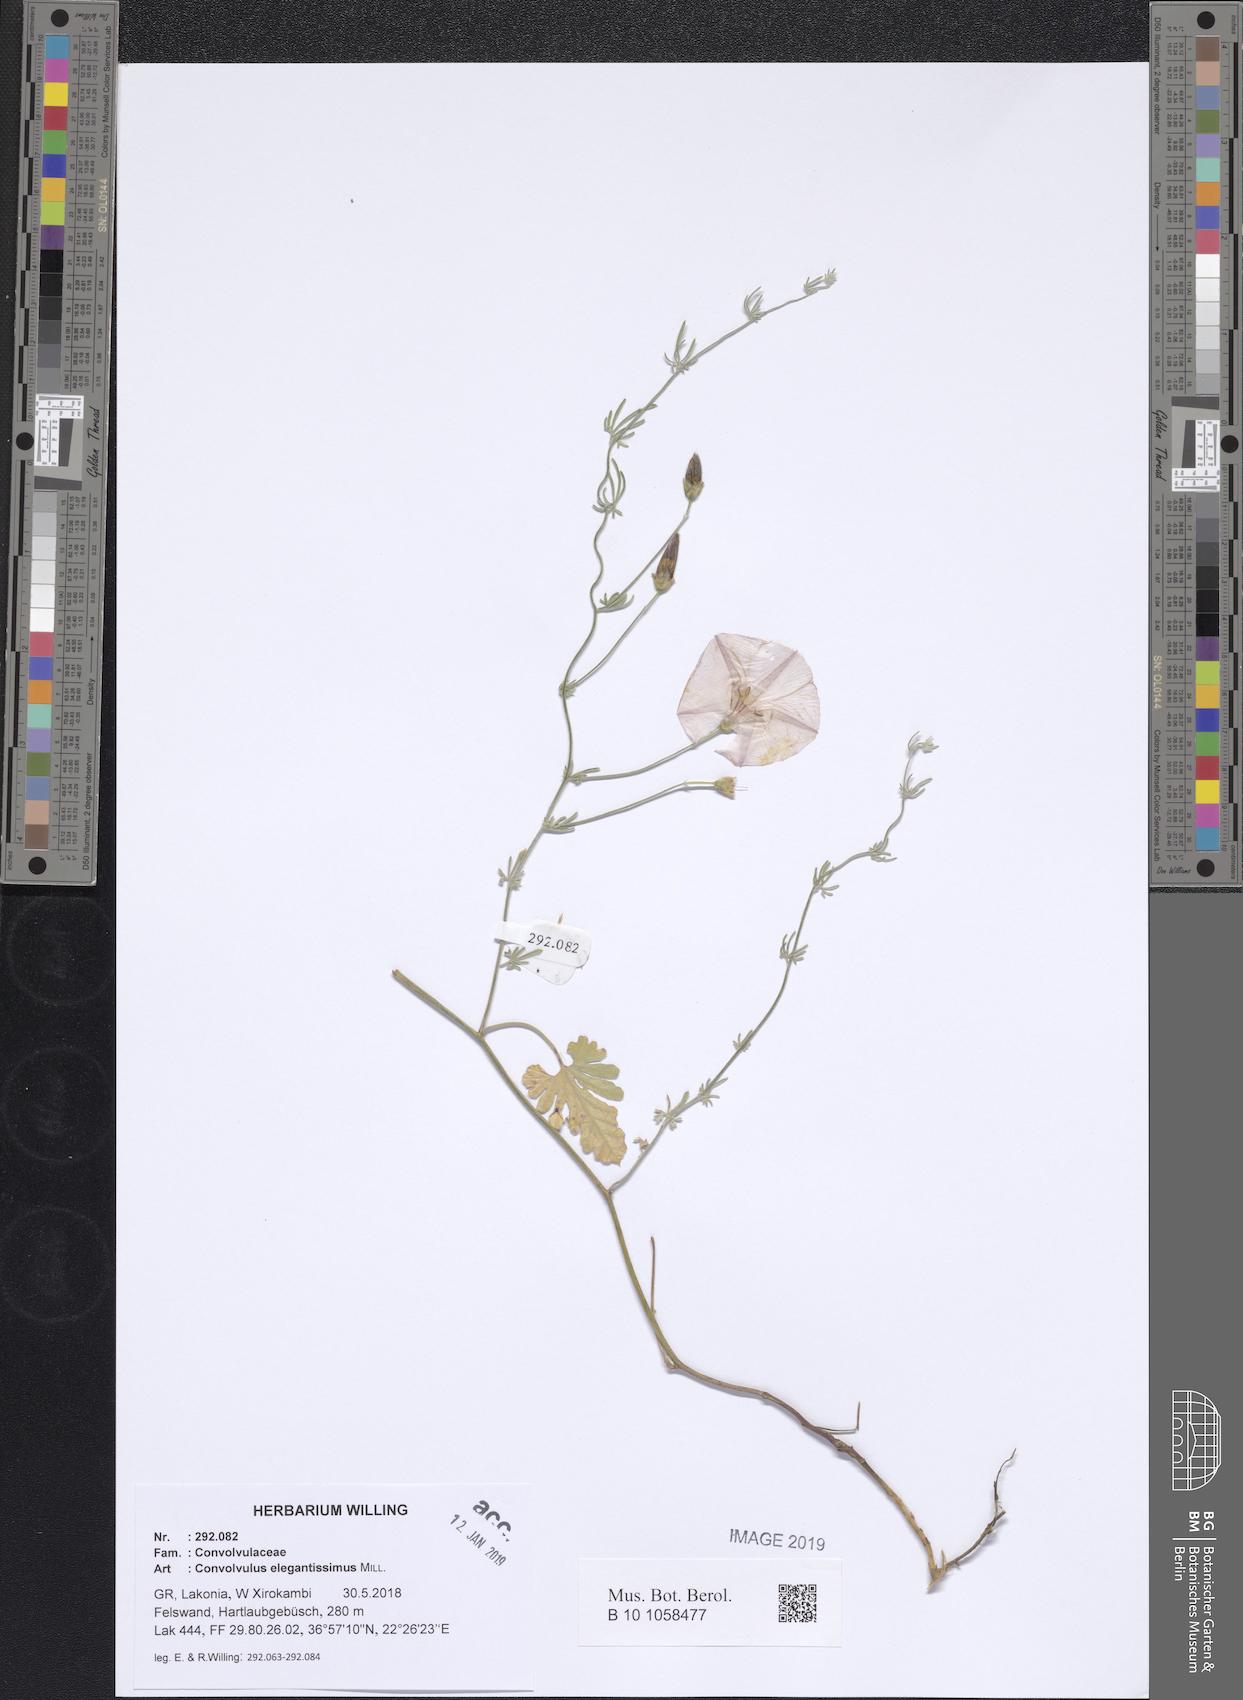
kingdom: Plantae
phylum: Tracheophyta
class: Magnoliopsida
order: Solanales
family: Convolvulaceae
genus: Convolvulus
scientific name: Convolvulus elegantissimus
